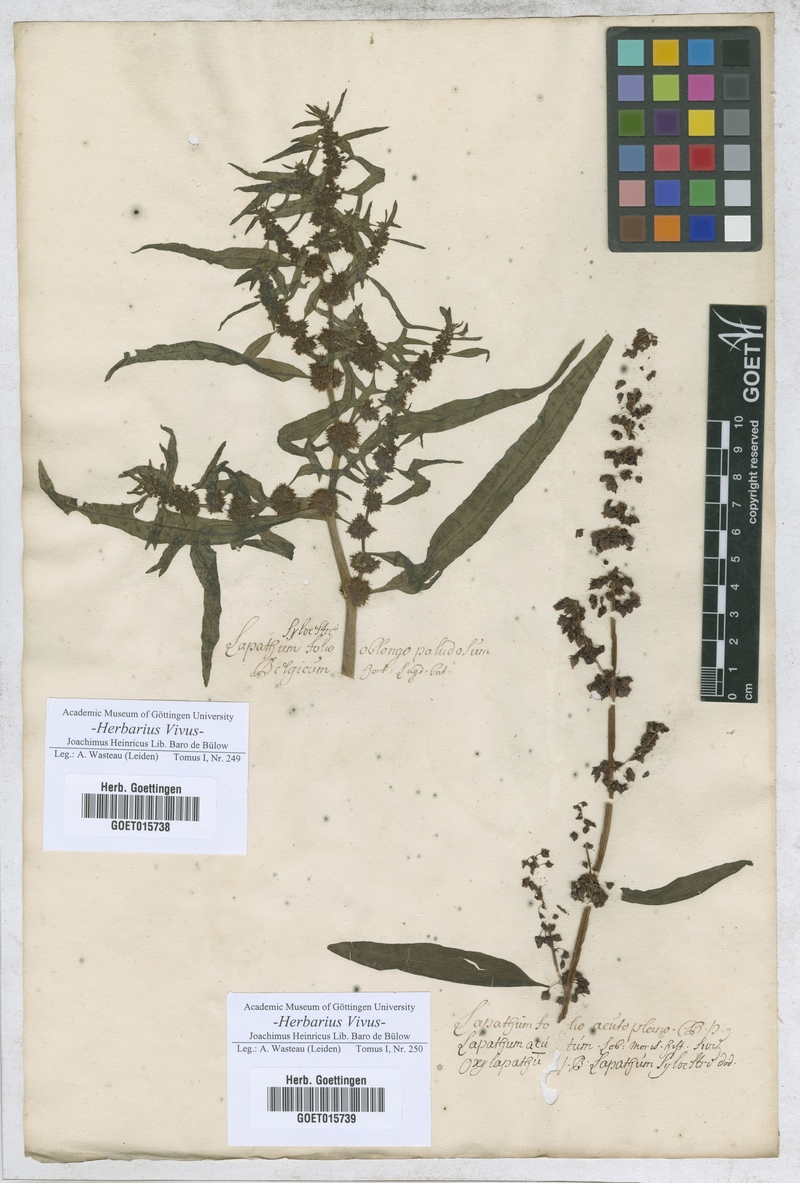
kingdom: Plantae
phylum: Tracheophyta
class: Magnoliopsida
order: Caryophyllales
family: Polygonaceae
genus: Lapathum
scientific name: Lapathum
